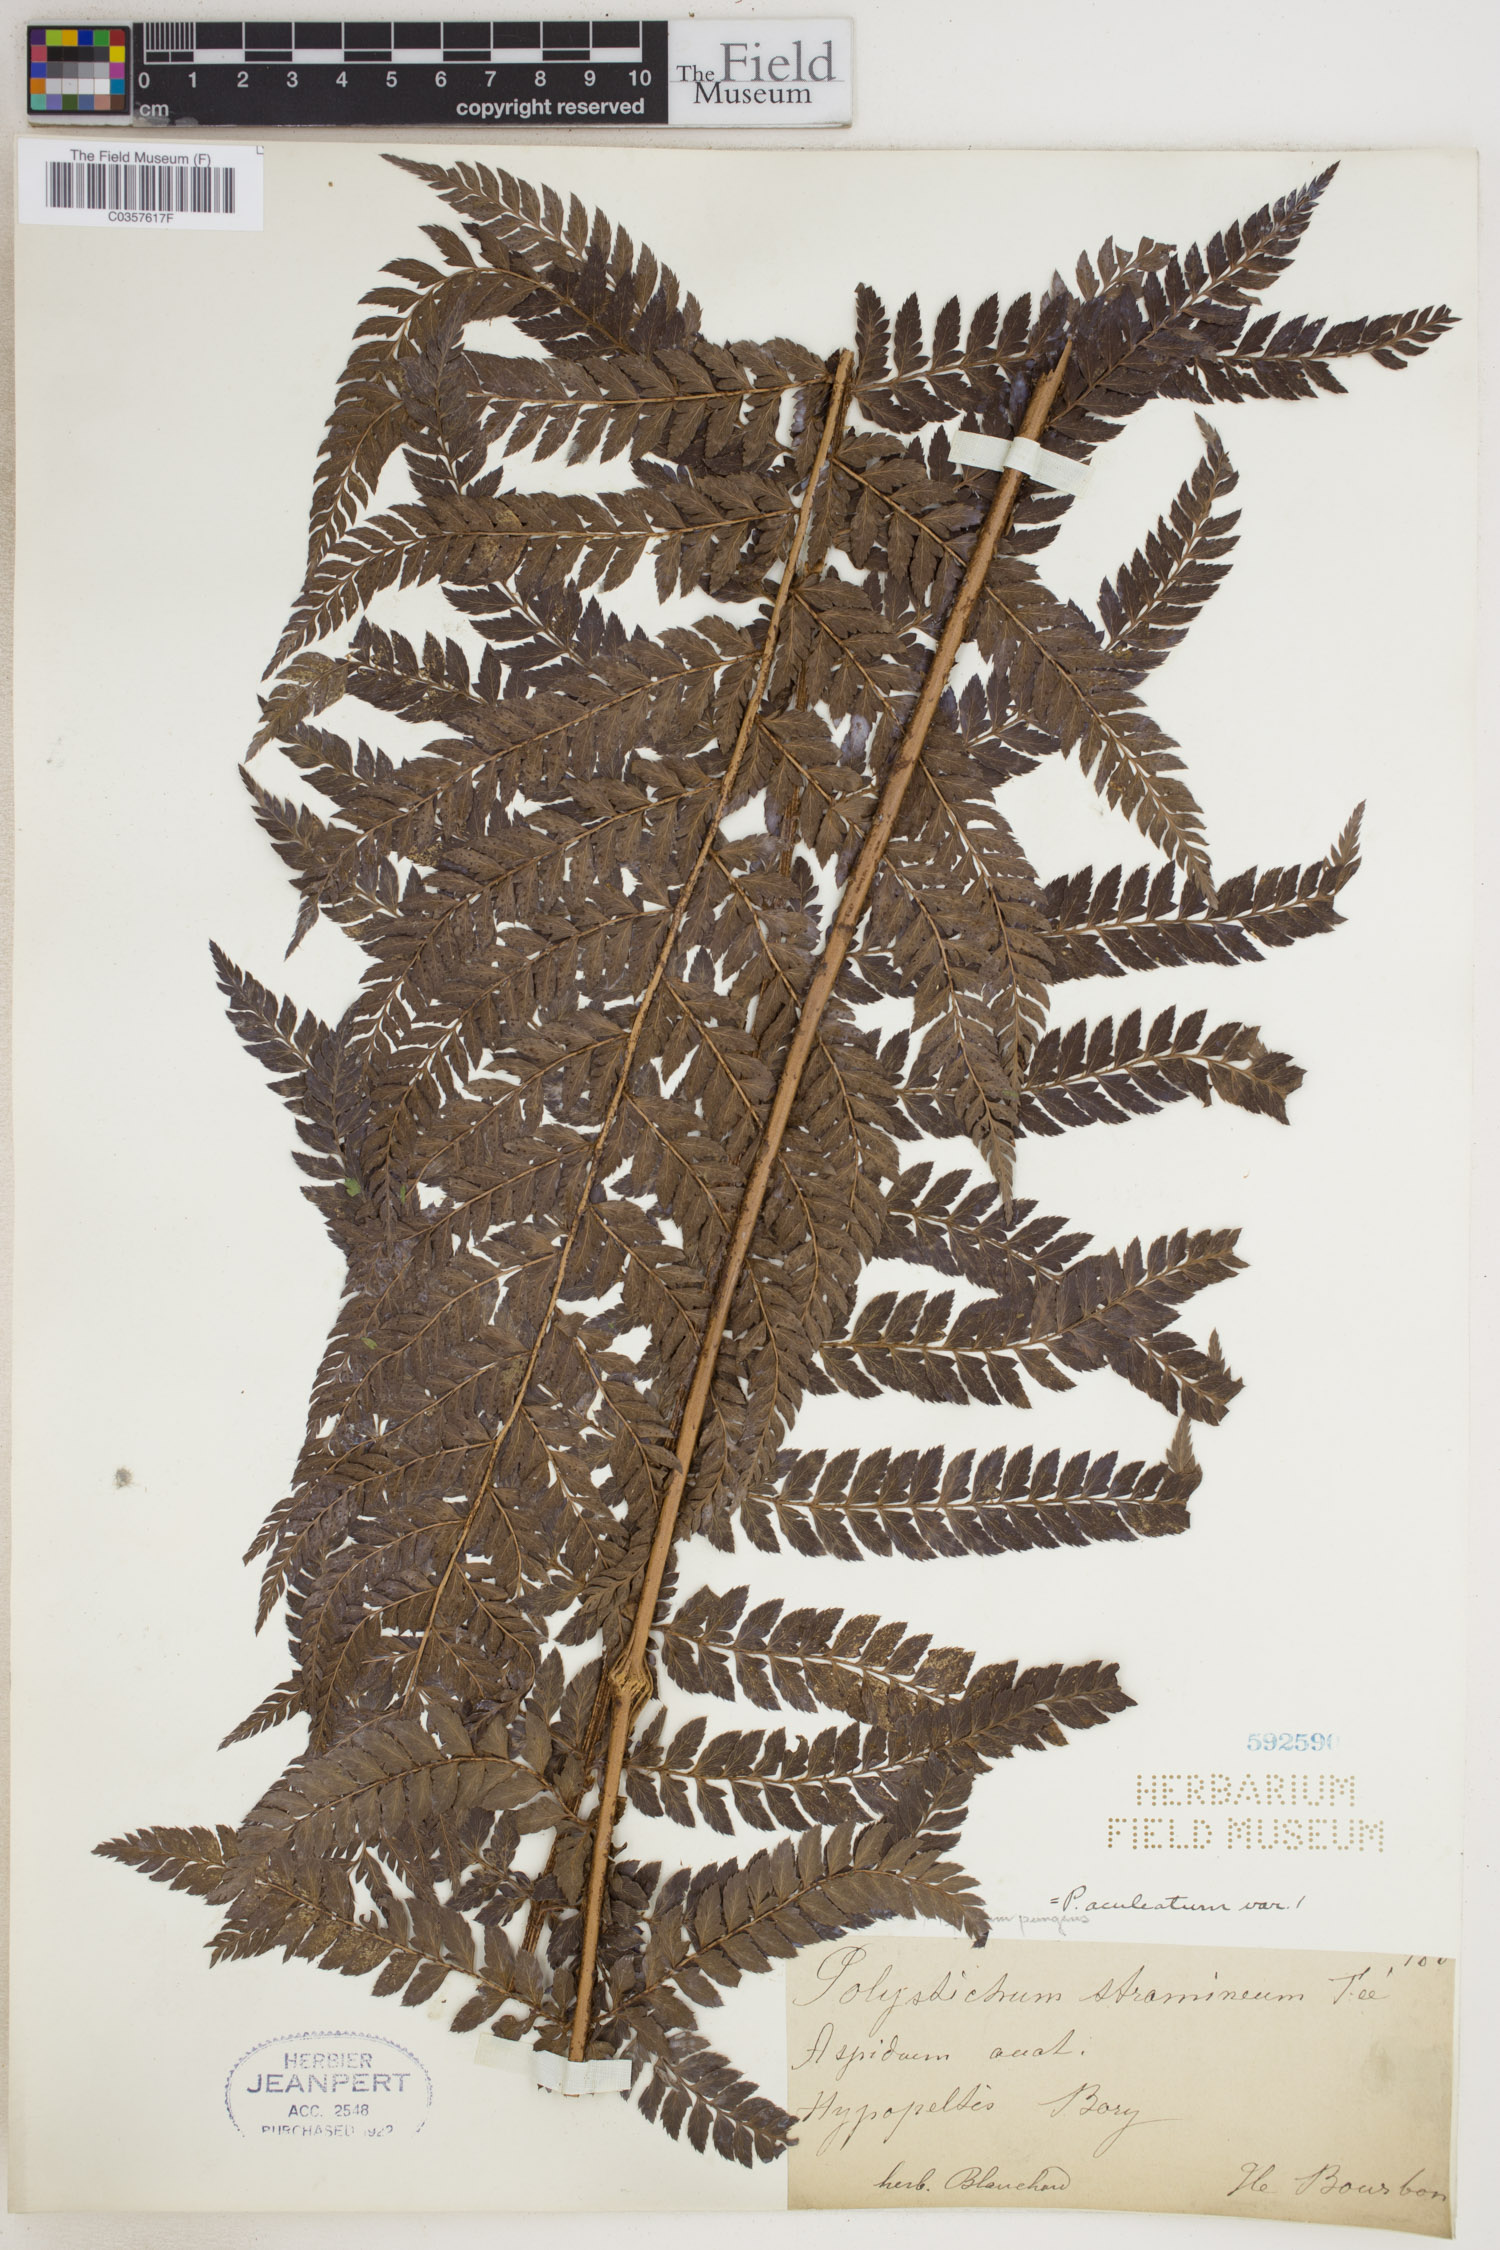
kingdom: Plantae
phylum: Tracheophyta
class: Polypodiopsida
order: Polypodiales
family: Dryopteridaceae
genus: Polystichum
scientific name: Polystichum aculeatum
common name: Hard shield-fern
